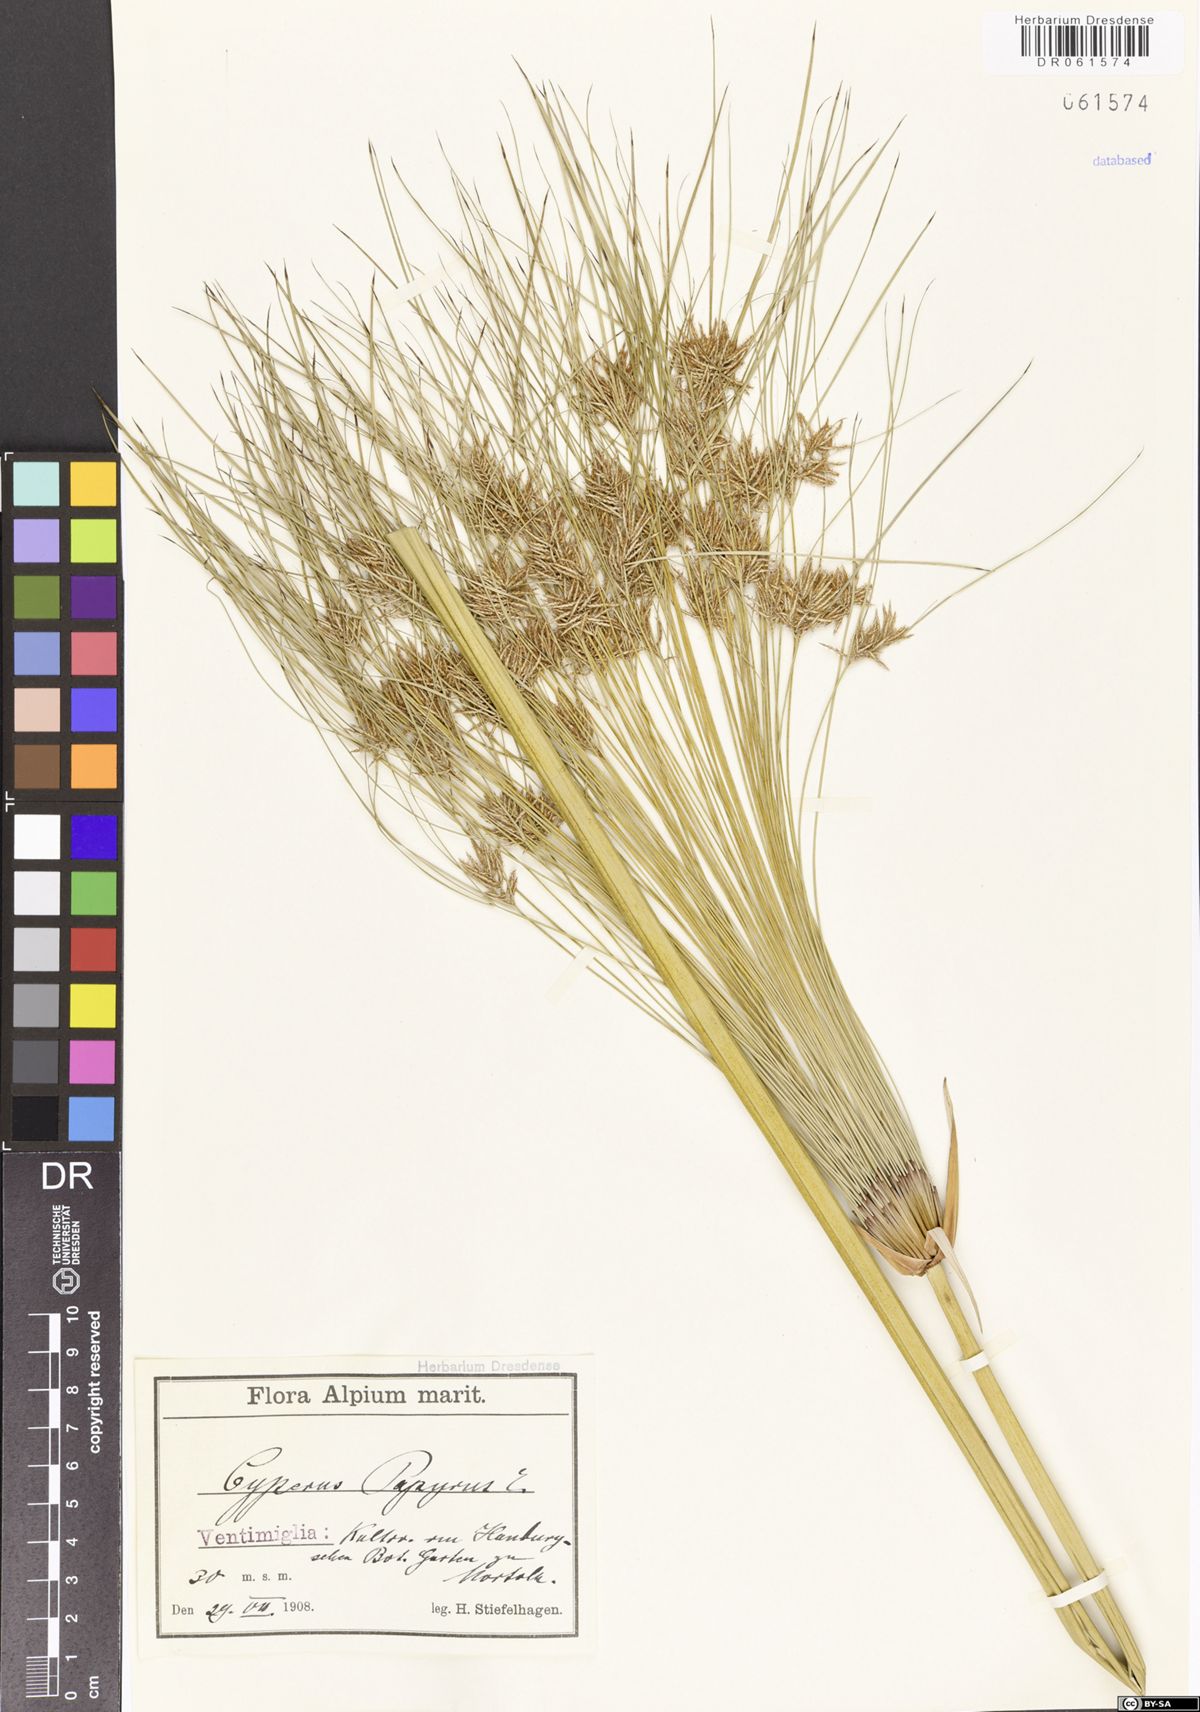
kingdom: Plantae
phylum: Tracheophyta
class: Liliopsida
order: Poales
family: Cyperaceae
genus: Cyperus
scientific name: Cyperus papyrus
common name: Papyrus
